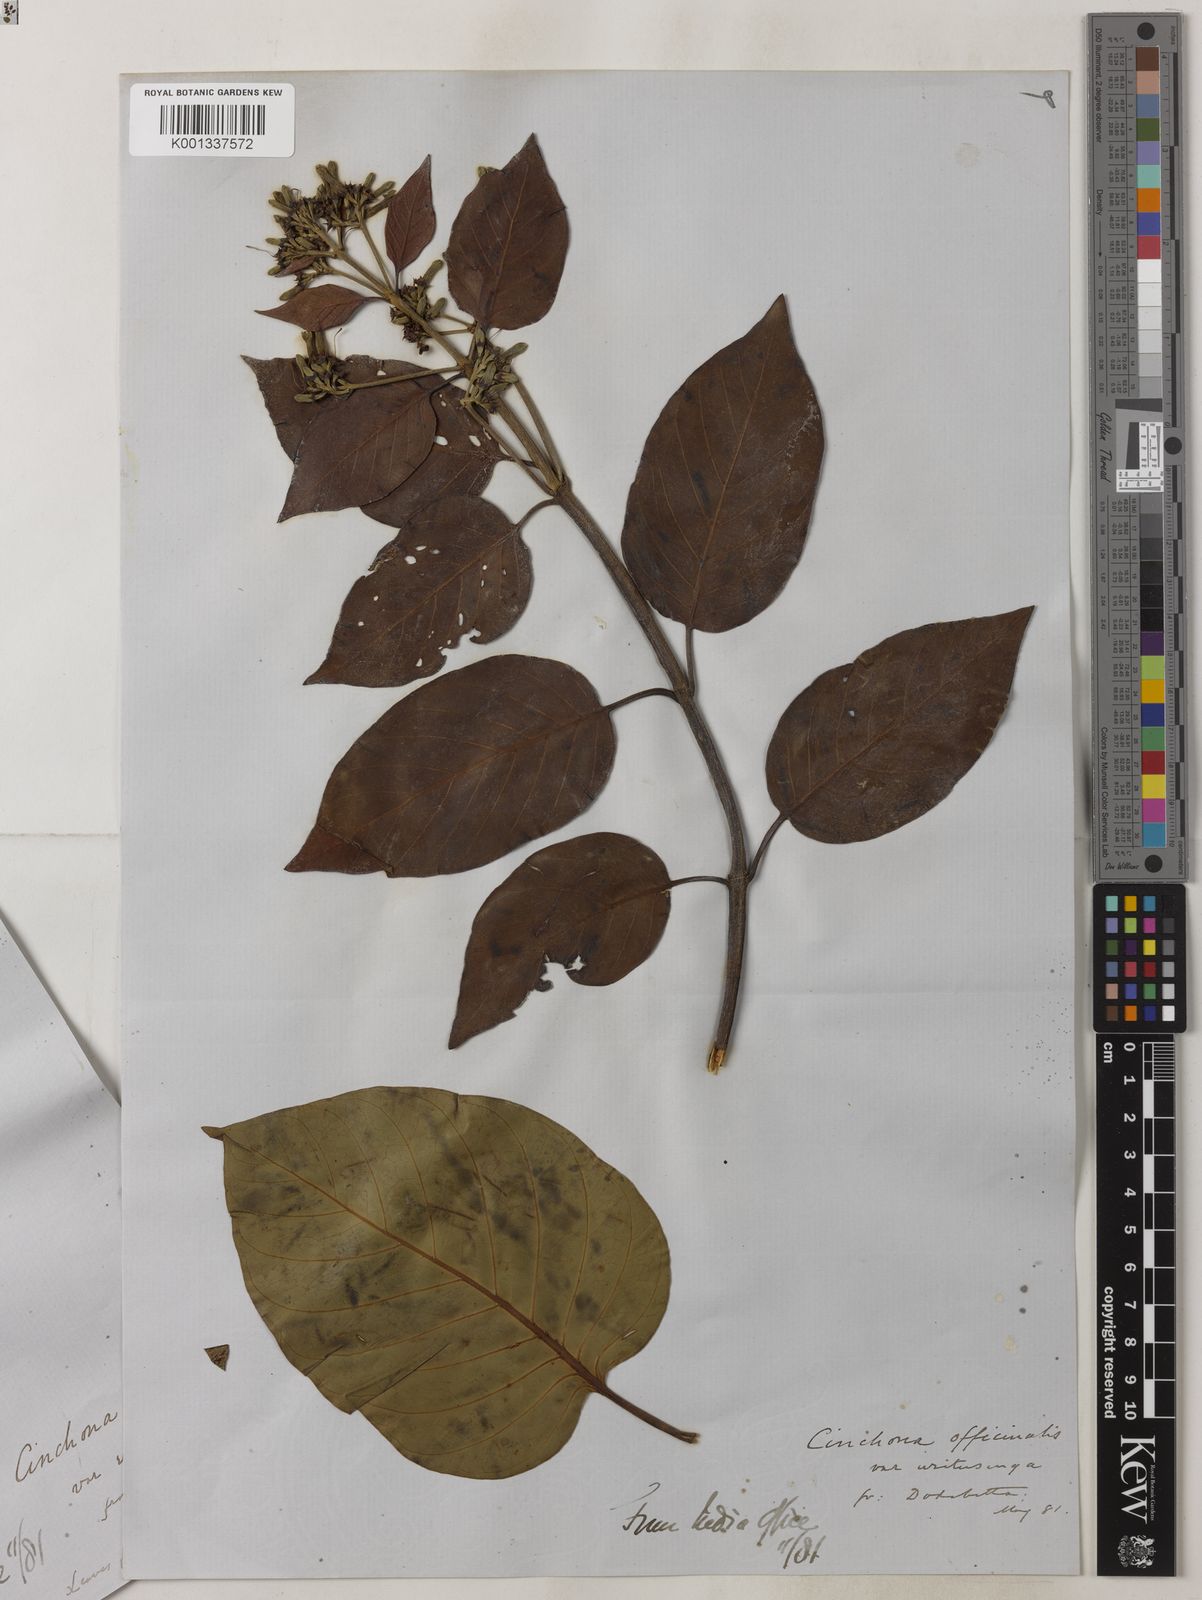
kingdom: Plantae
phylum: Tracheophyta
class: Magnoliopsida
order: Gentianales
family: Rubiaceae
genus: Cinchona
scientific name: Cinchona officinalis
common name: Lojabark
